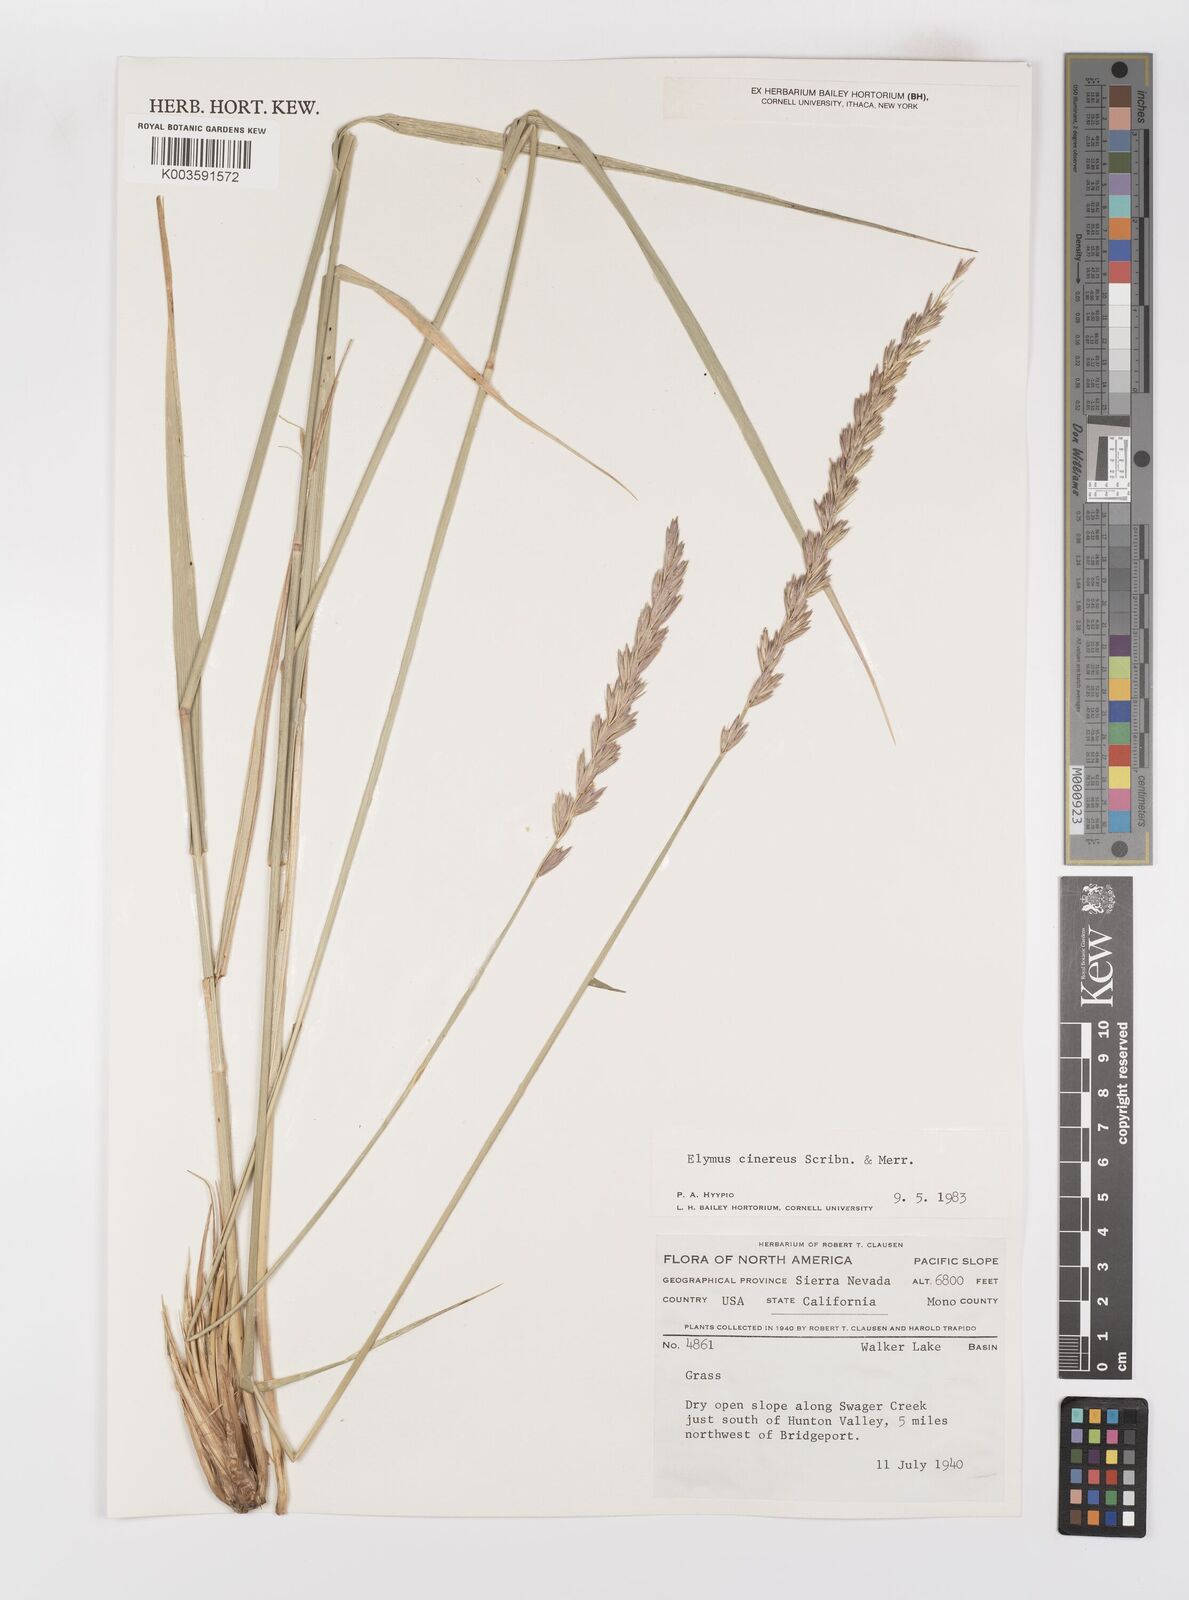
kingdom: Plantae
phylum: Tracheophyta
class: Liliopsida
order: Poales
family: Poaceae
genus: Leymus
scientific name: Leymus cinereus
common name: Basin wild rye
